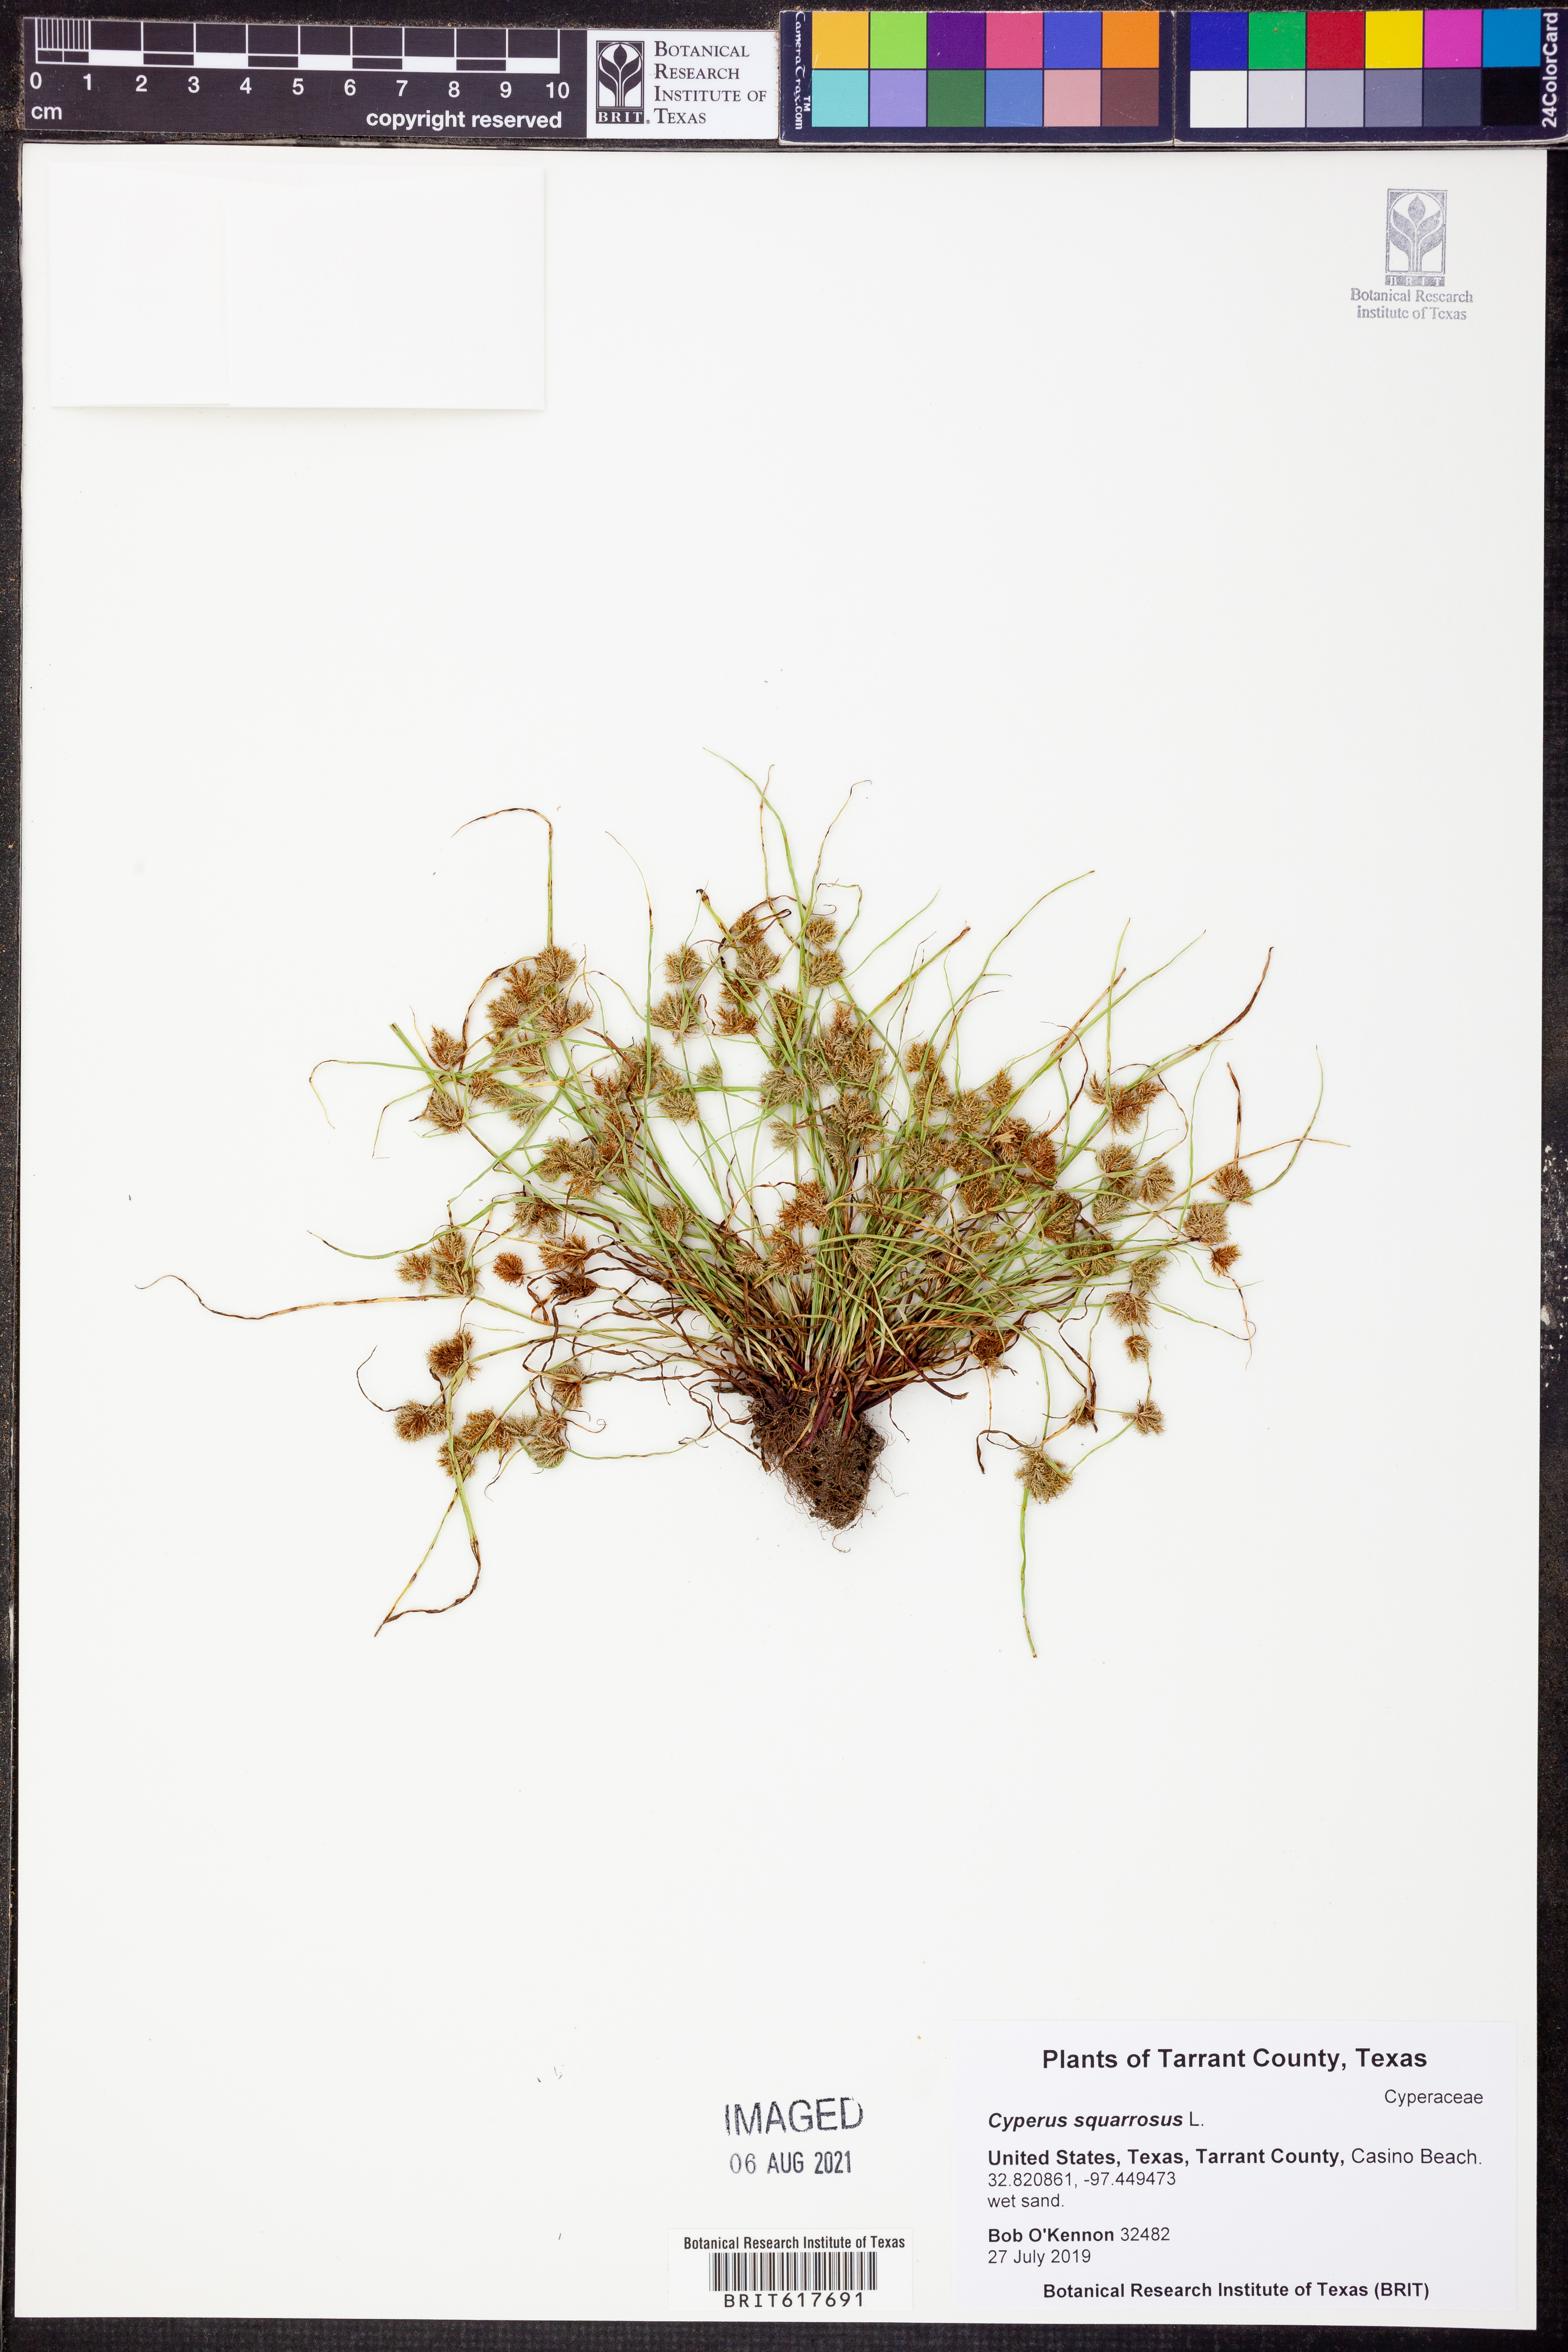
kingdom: Plantae
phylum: Tracheophyta
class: Liliopsida
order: Poales
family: Cyperaceae
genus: Cyperus
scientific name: Cyperus squarrosus
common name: Awned cyperus
